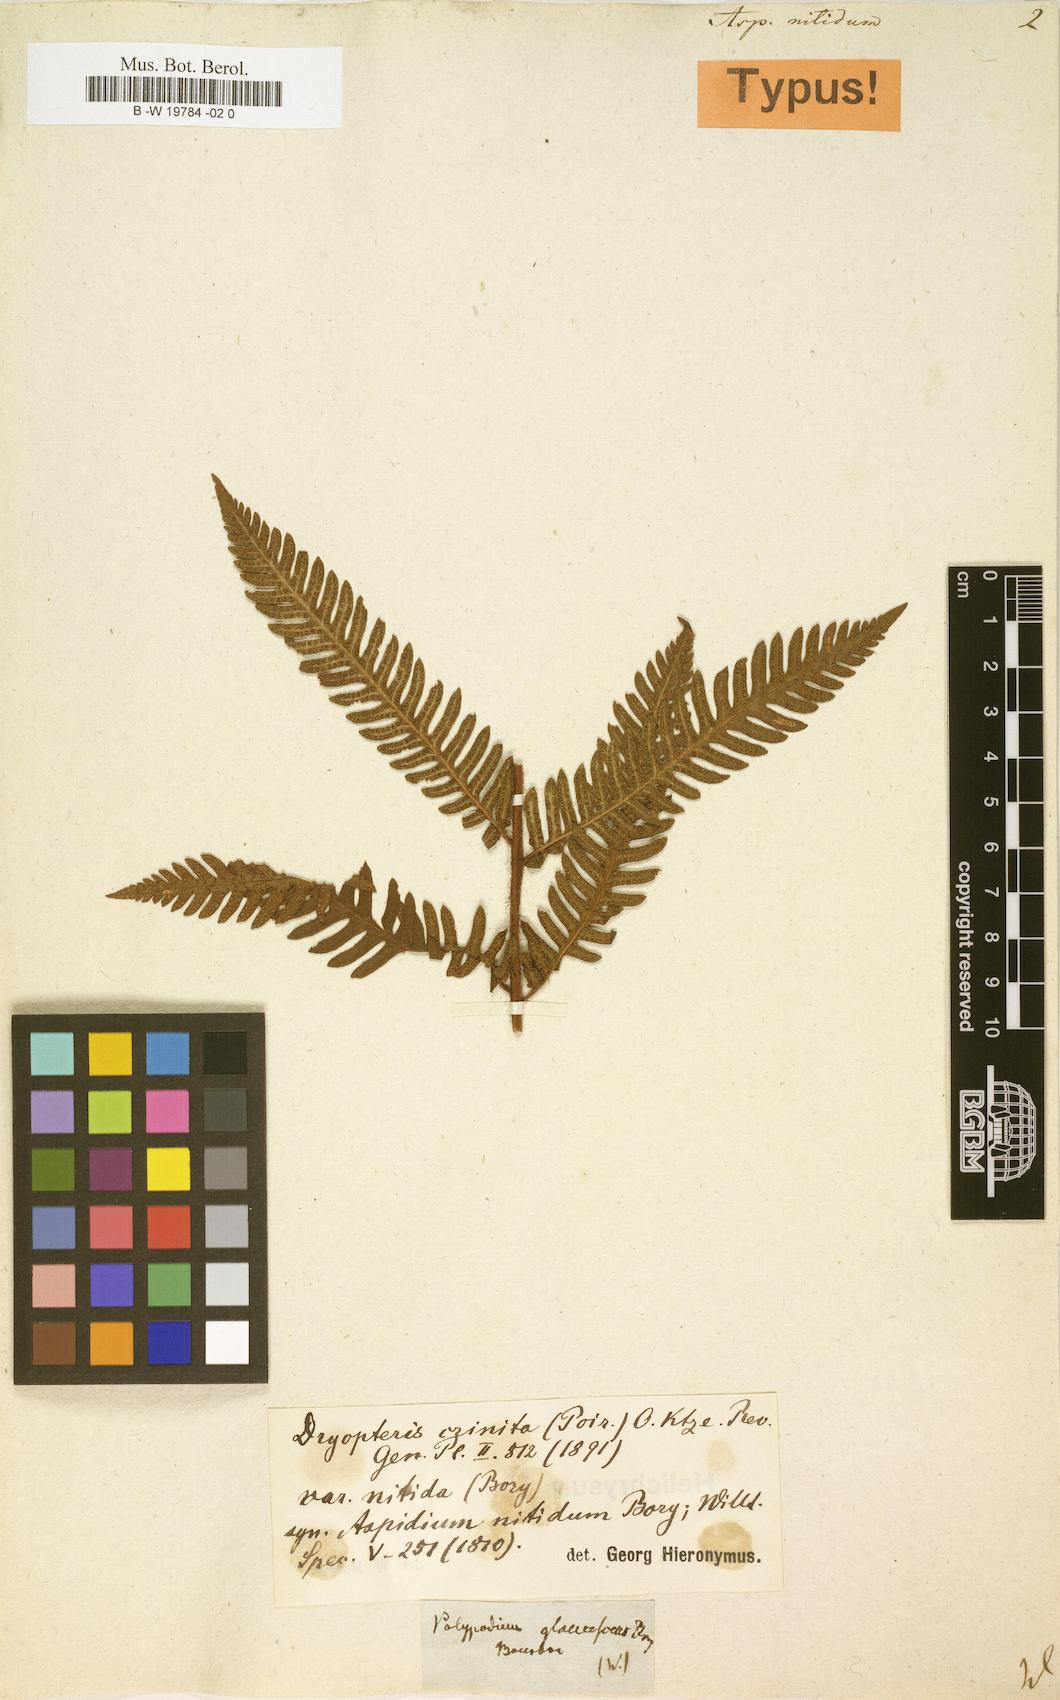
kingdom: Plantae
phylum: Tracheophyta
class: Polypodiopsida
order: Polypodiales
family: Dryopteridaceae
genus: Ctenitis
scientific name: Ctenitis crinita
